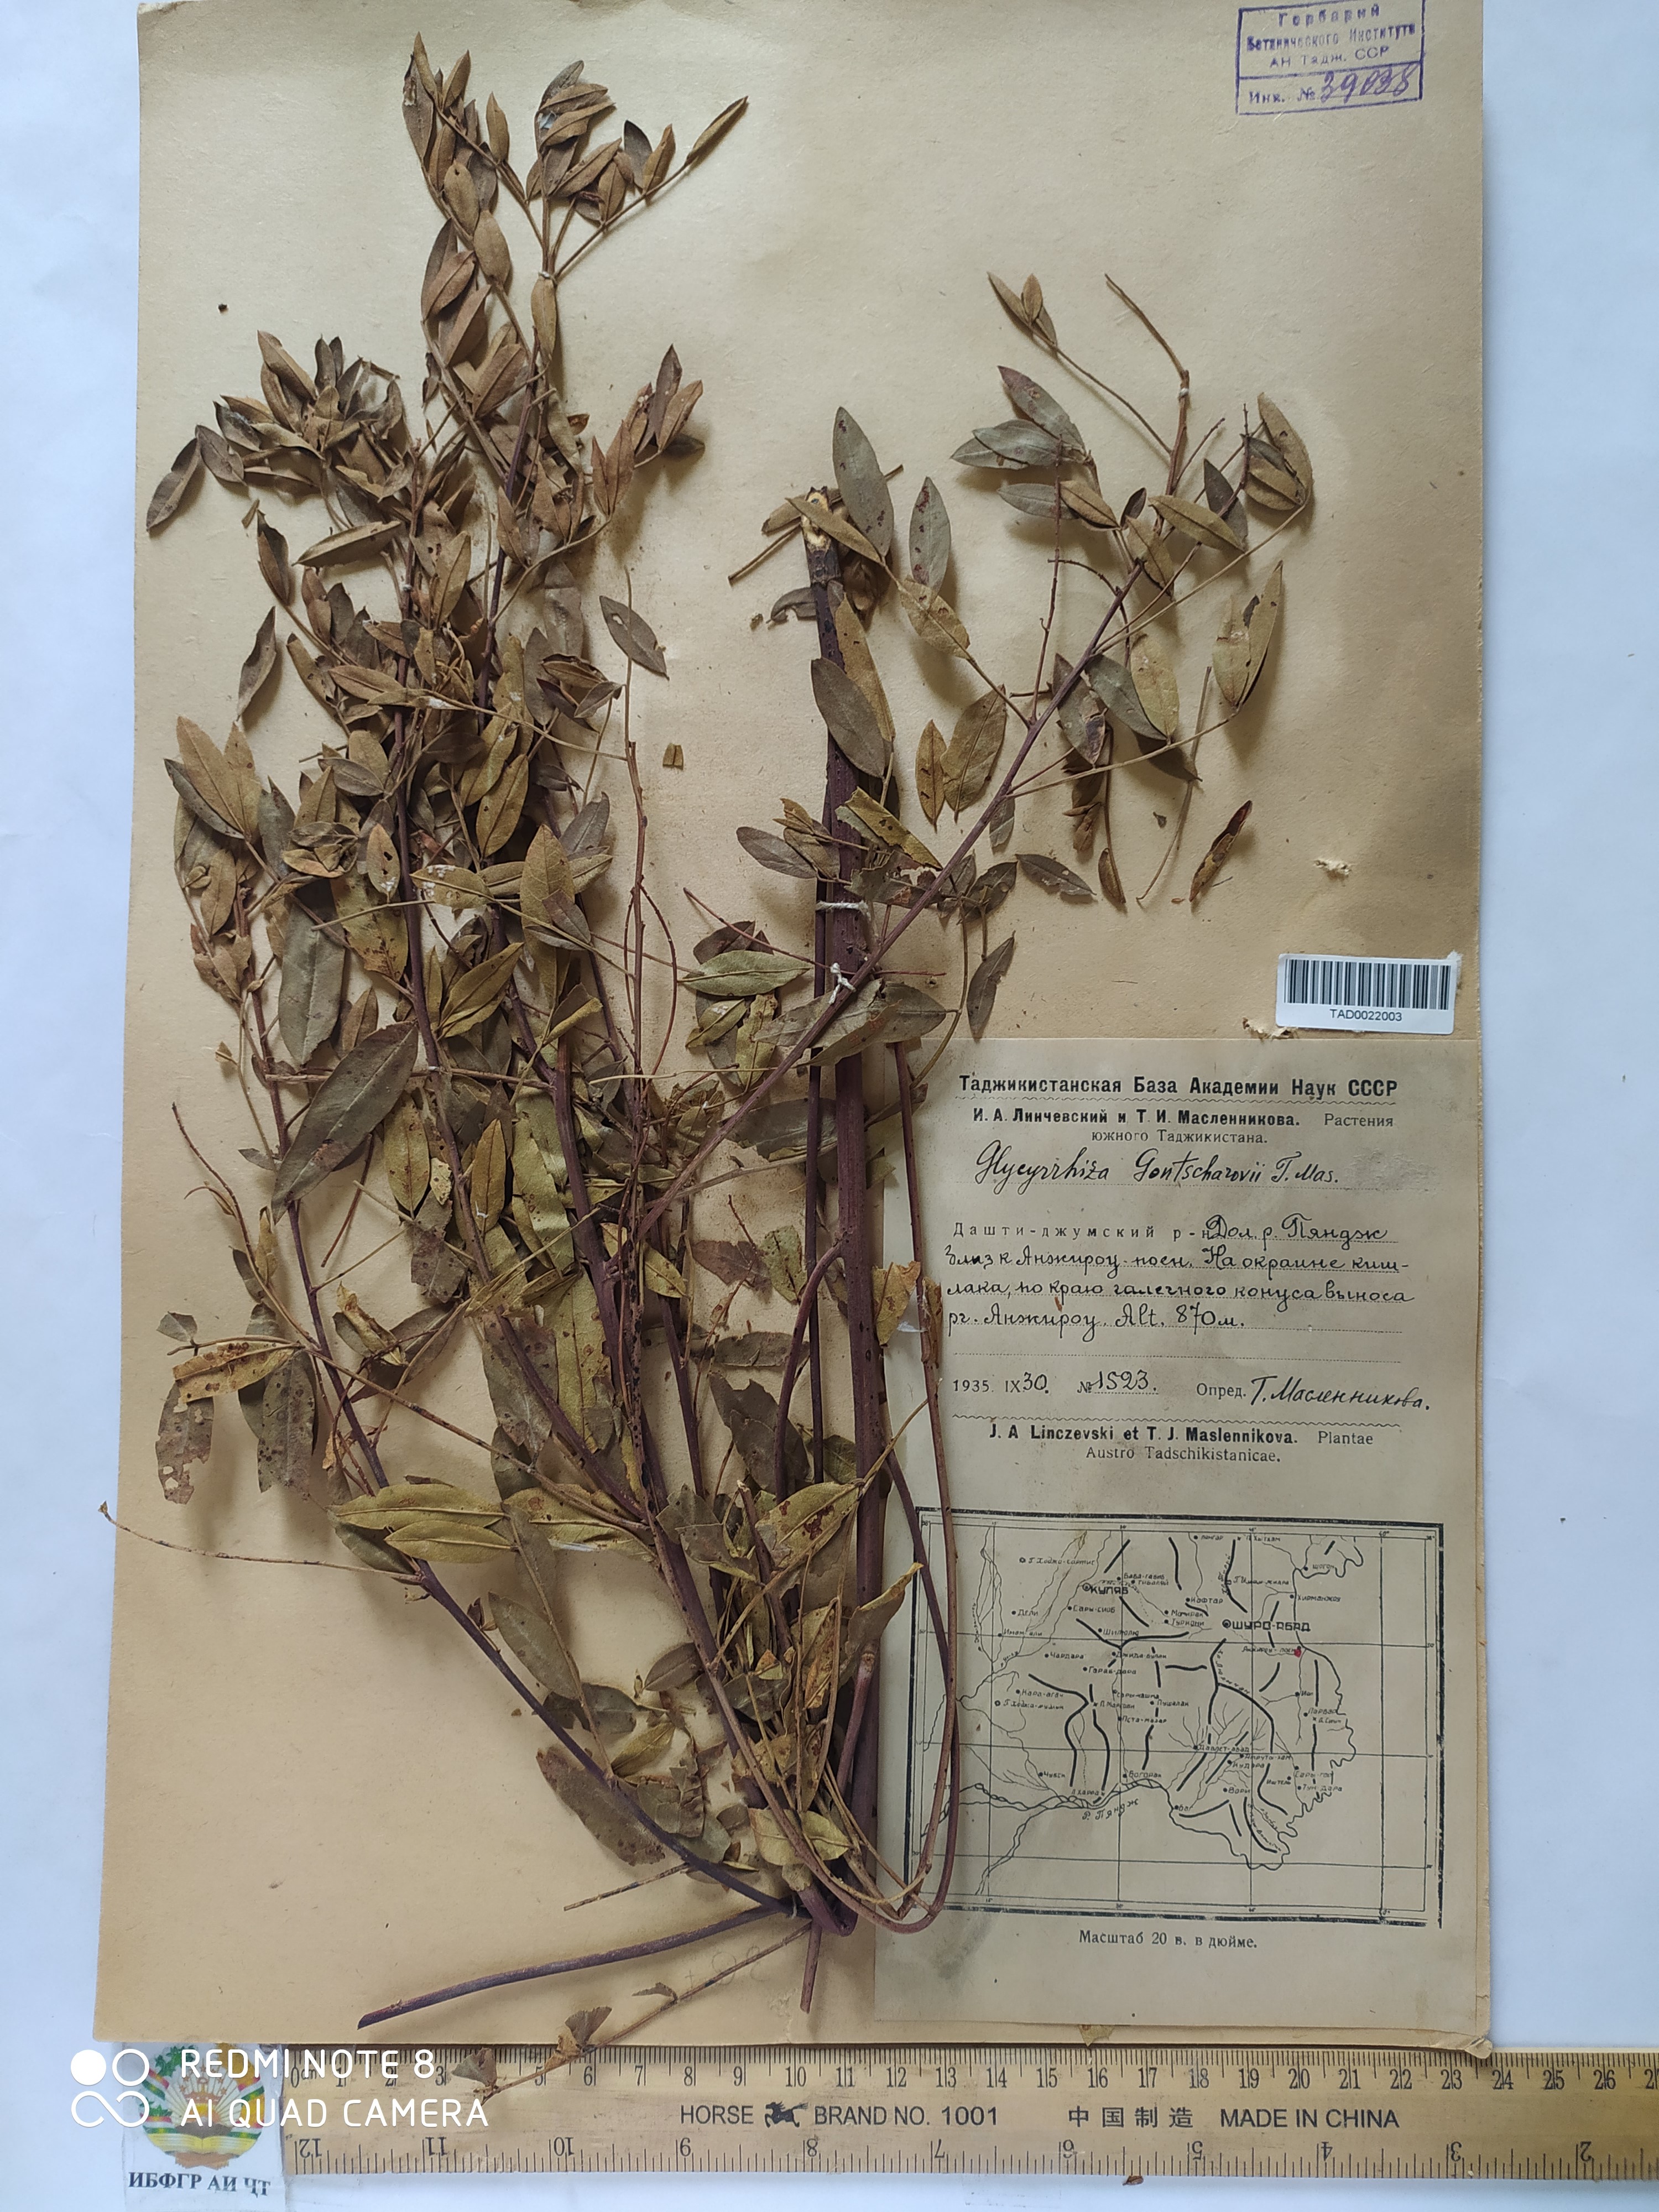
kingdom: Plantae
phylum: Tracheophyta
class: Magnoliopsida
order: Fabales
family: Fabaceae
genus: Glycyrrhiza
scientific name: Glycyrrhiza gontscharovii
